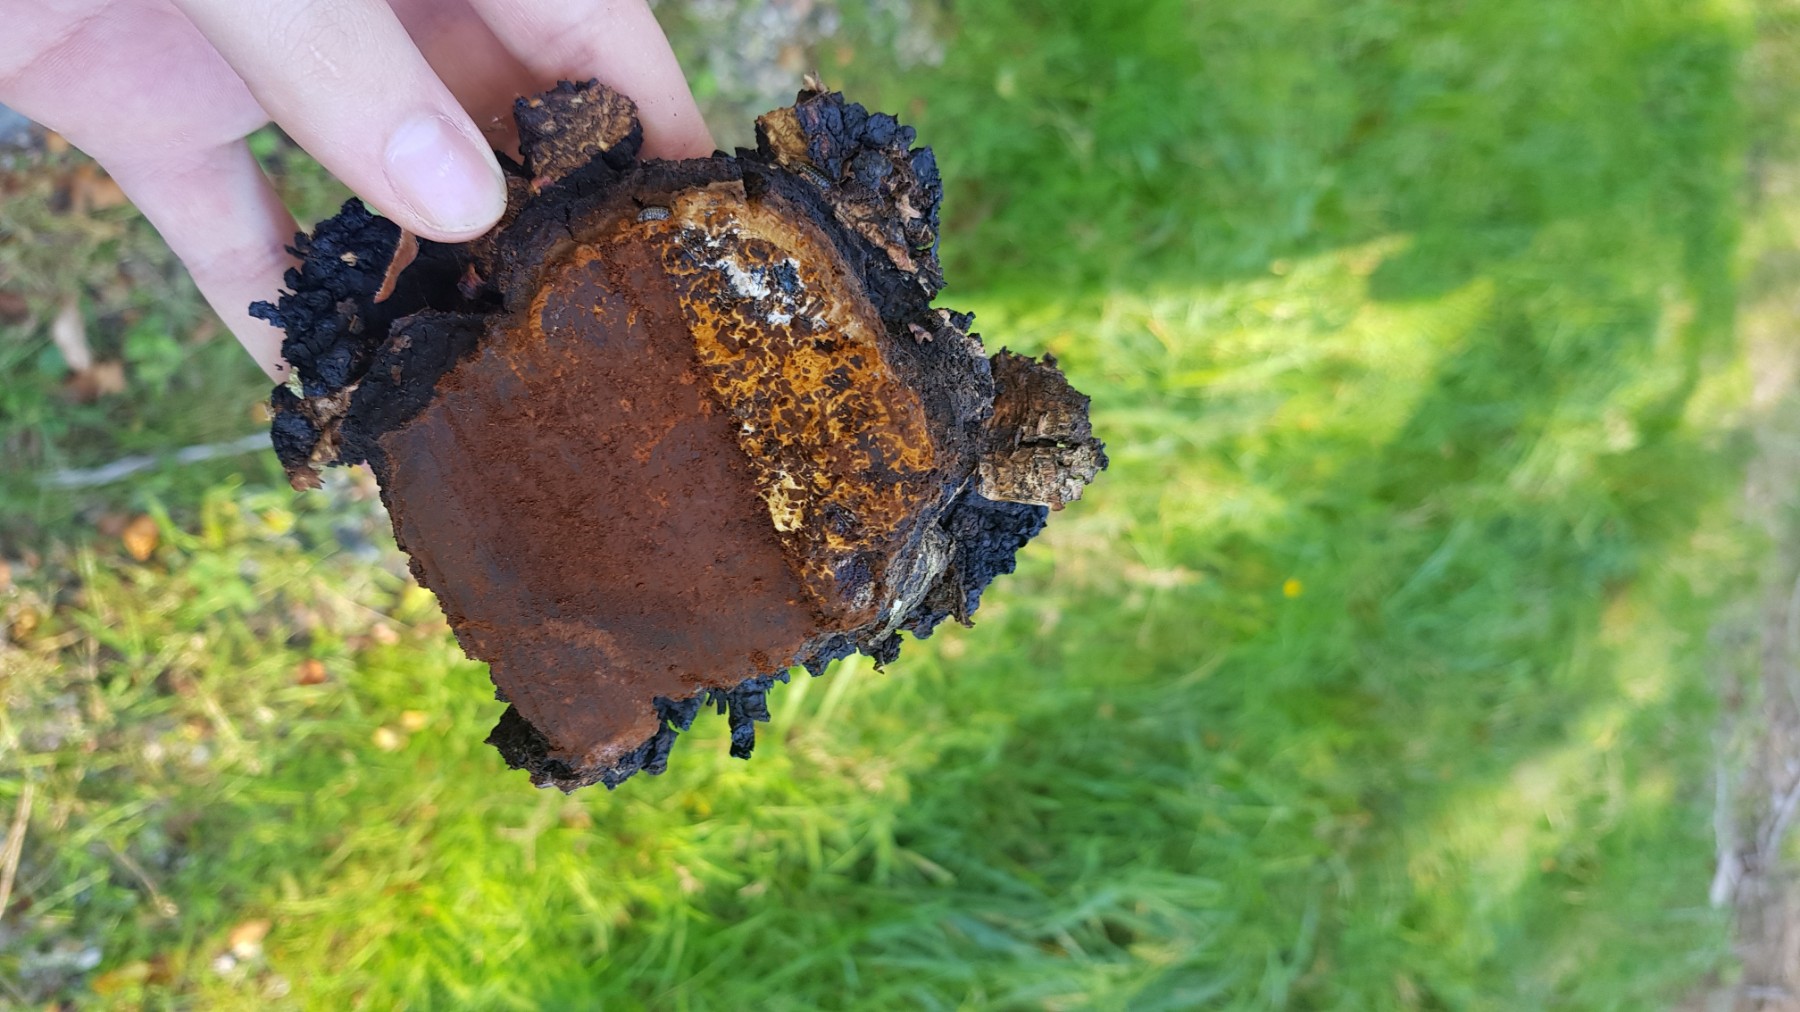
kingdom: Fungi
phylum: Basidiomycota
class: Agaricomycetes
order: Hymenochaetales
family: Hymenochaetaceae
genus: Inonotus
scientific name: Inonotus obliquus
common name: birke-spejlporesvamp
